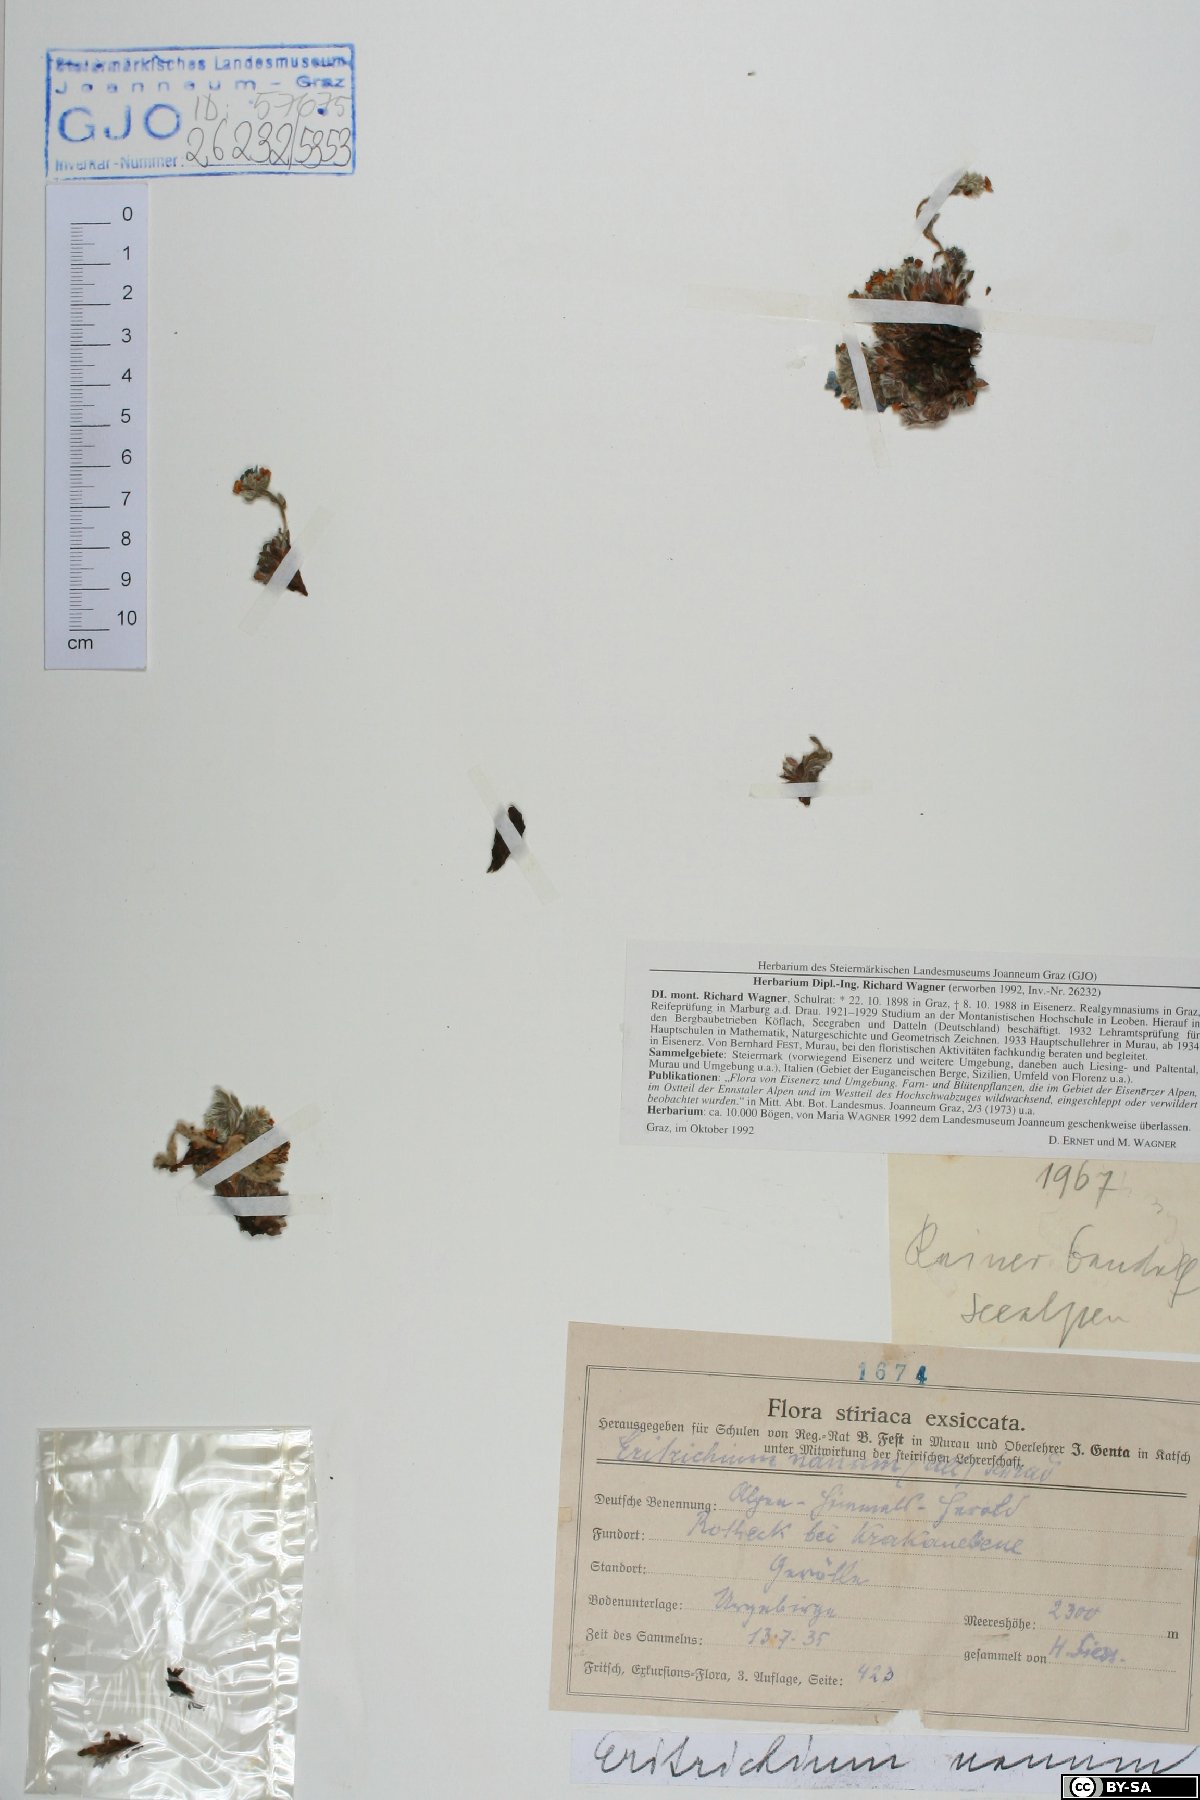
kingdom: Plantae
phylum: Tracheophyta
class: Magnoliopsida
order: Boraginales
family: Boraginaceae
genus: Eritrichium
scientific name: Eritrichium nanum
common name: King-of-the-alps
